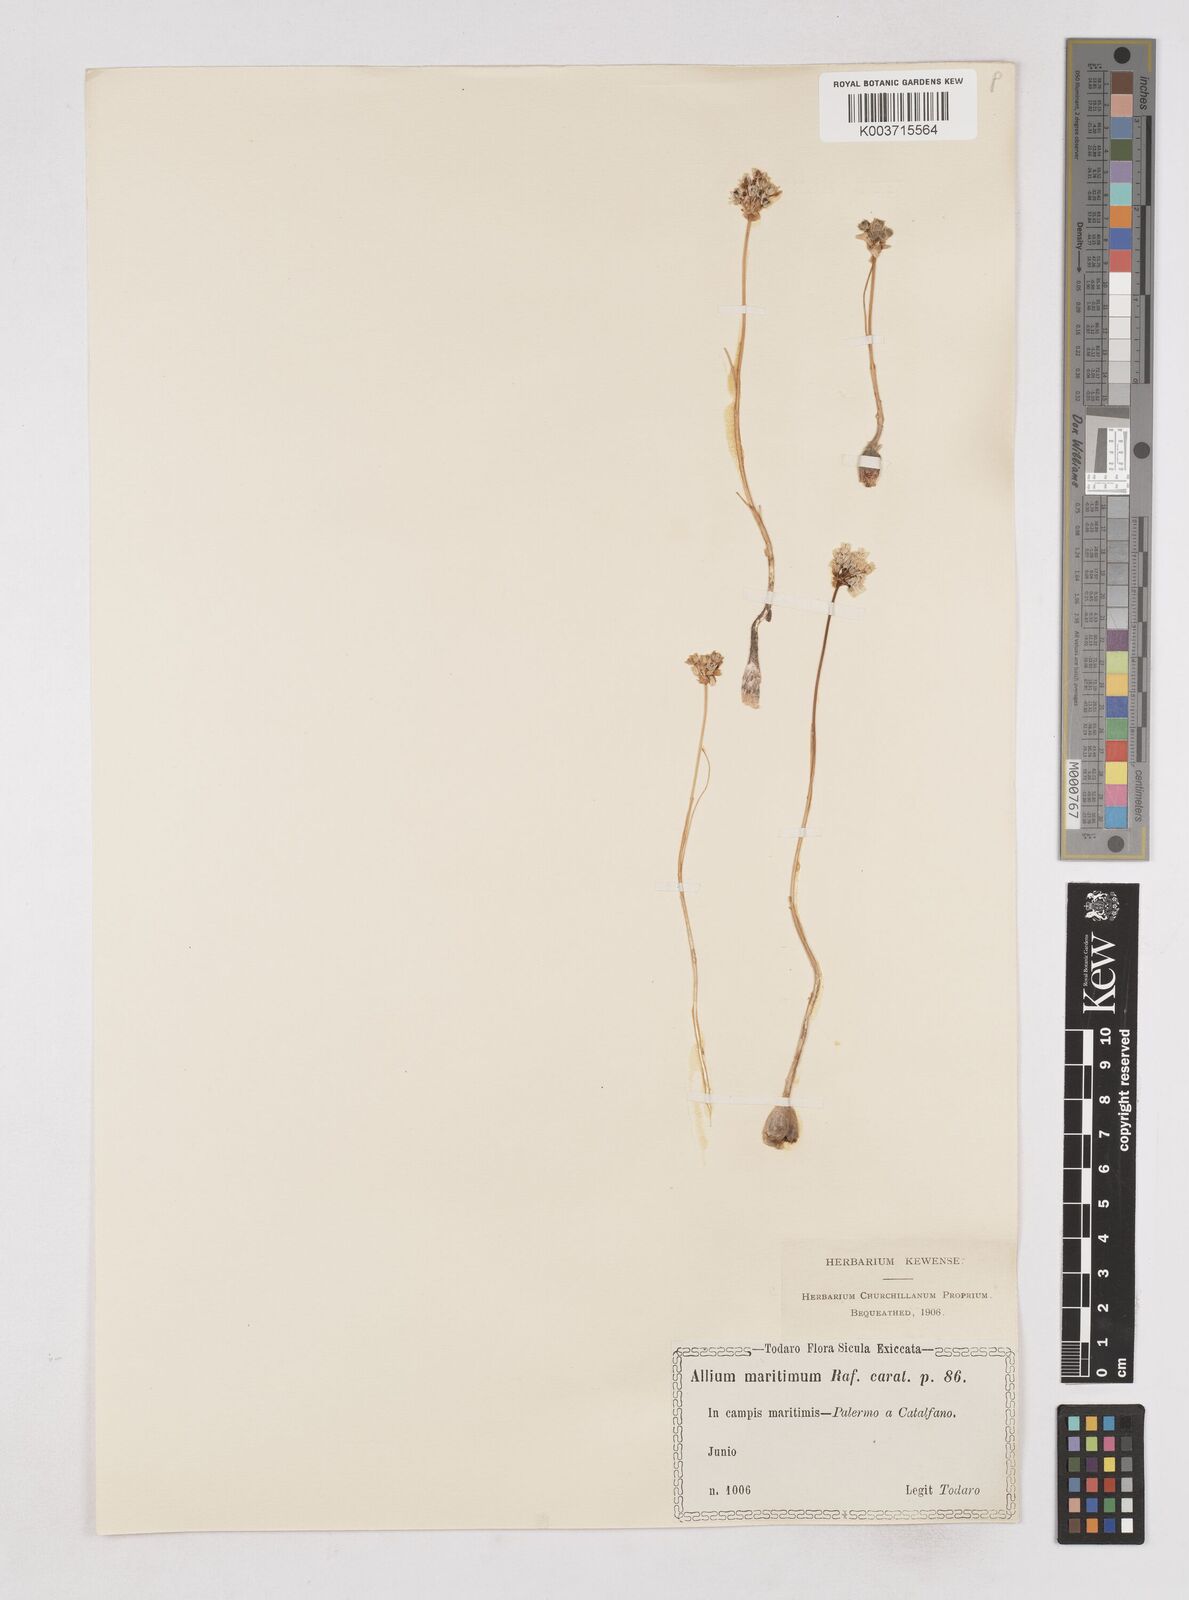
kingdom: Plantae
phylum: Tracheophyta
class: Liliopsida
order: Asparagales
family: Amaryllidaceae
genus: Allium
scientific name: Allium
